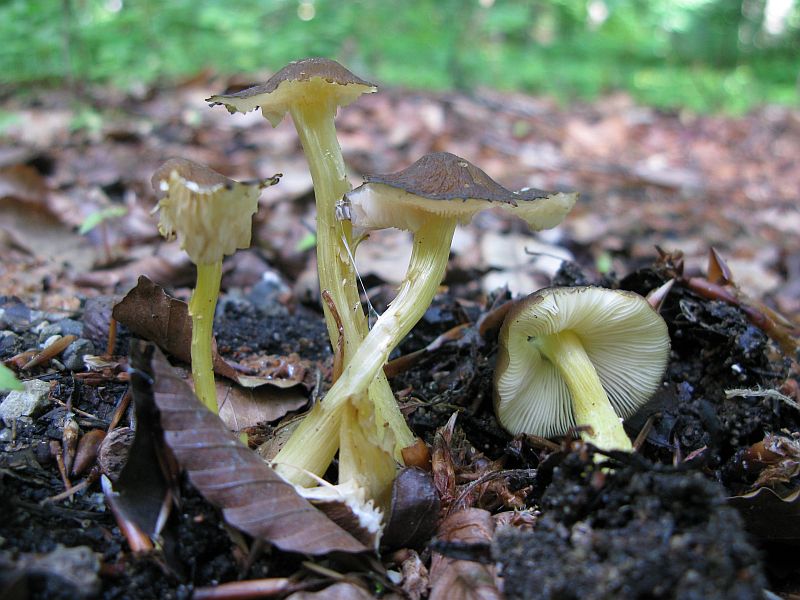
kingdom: Fungi
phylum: Basidiomycota
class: Agaricomycetes
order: Agaricales
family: Pluteaceae
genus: Pluteus
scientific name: Pluteus romellii
